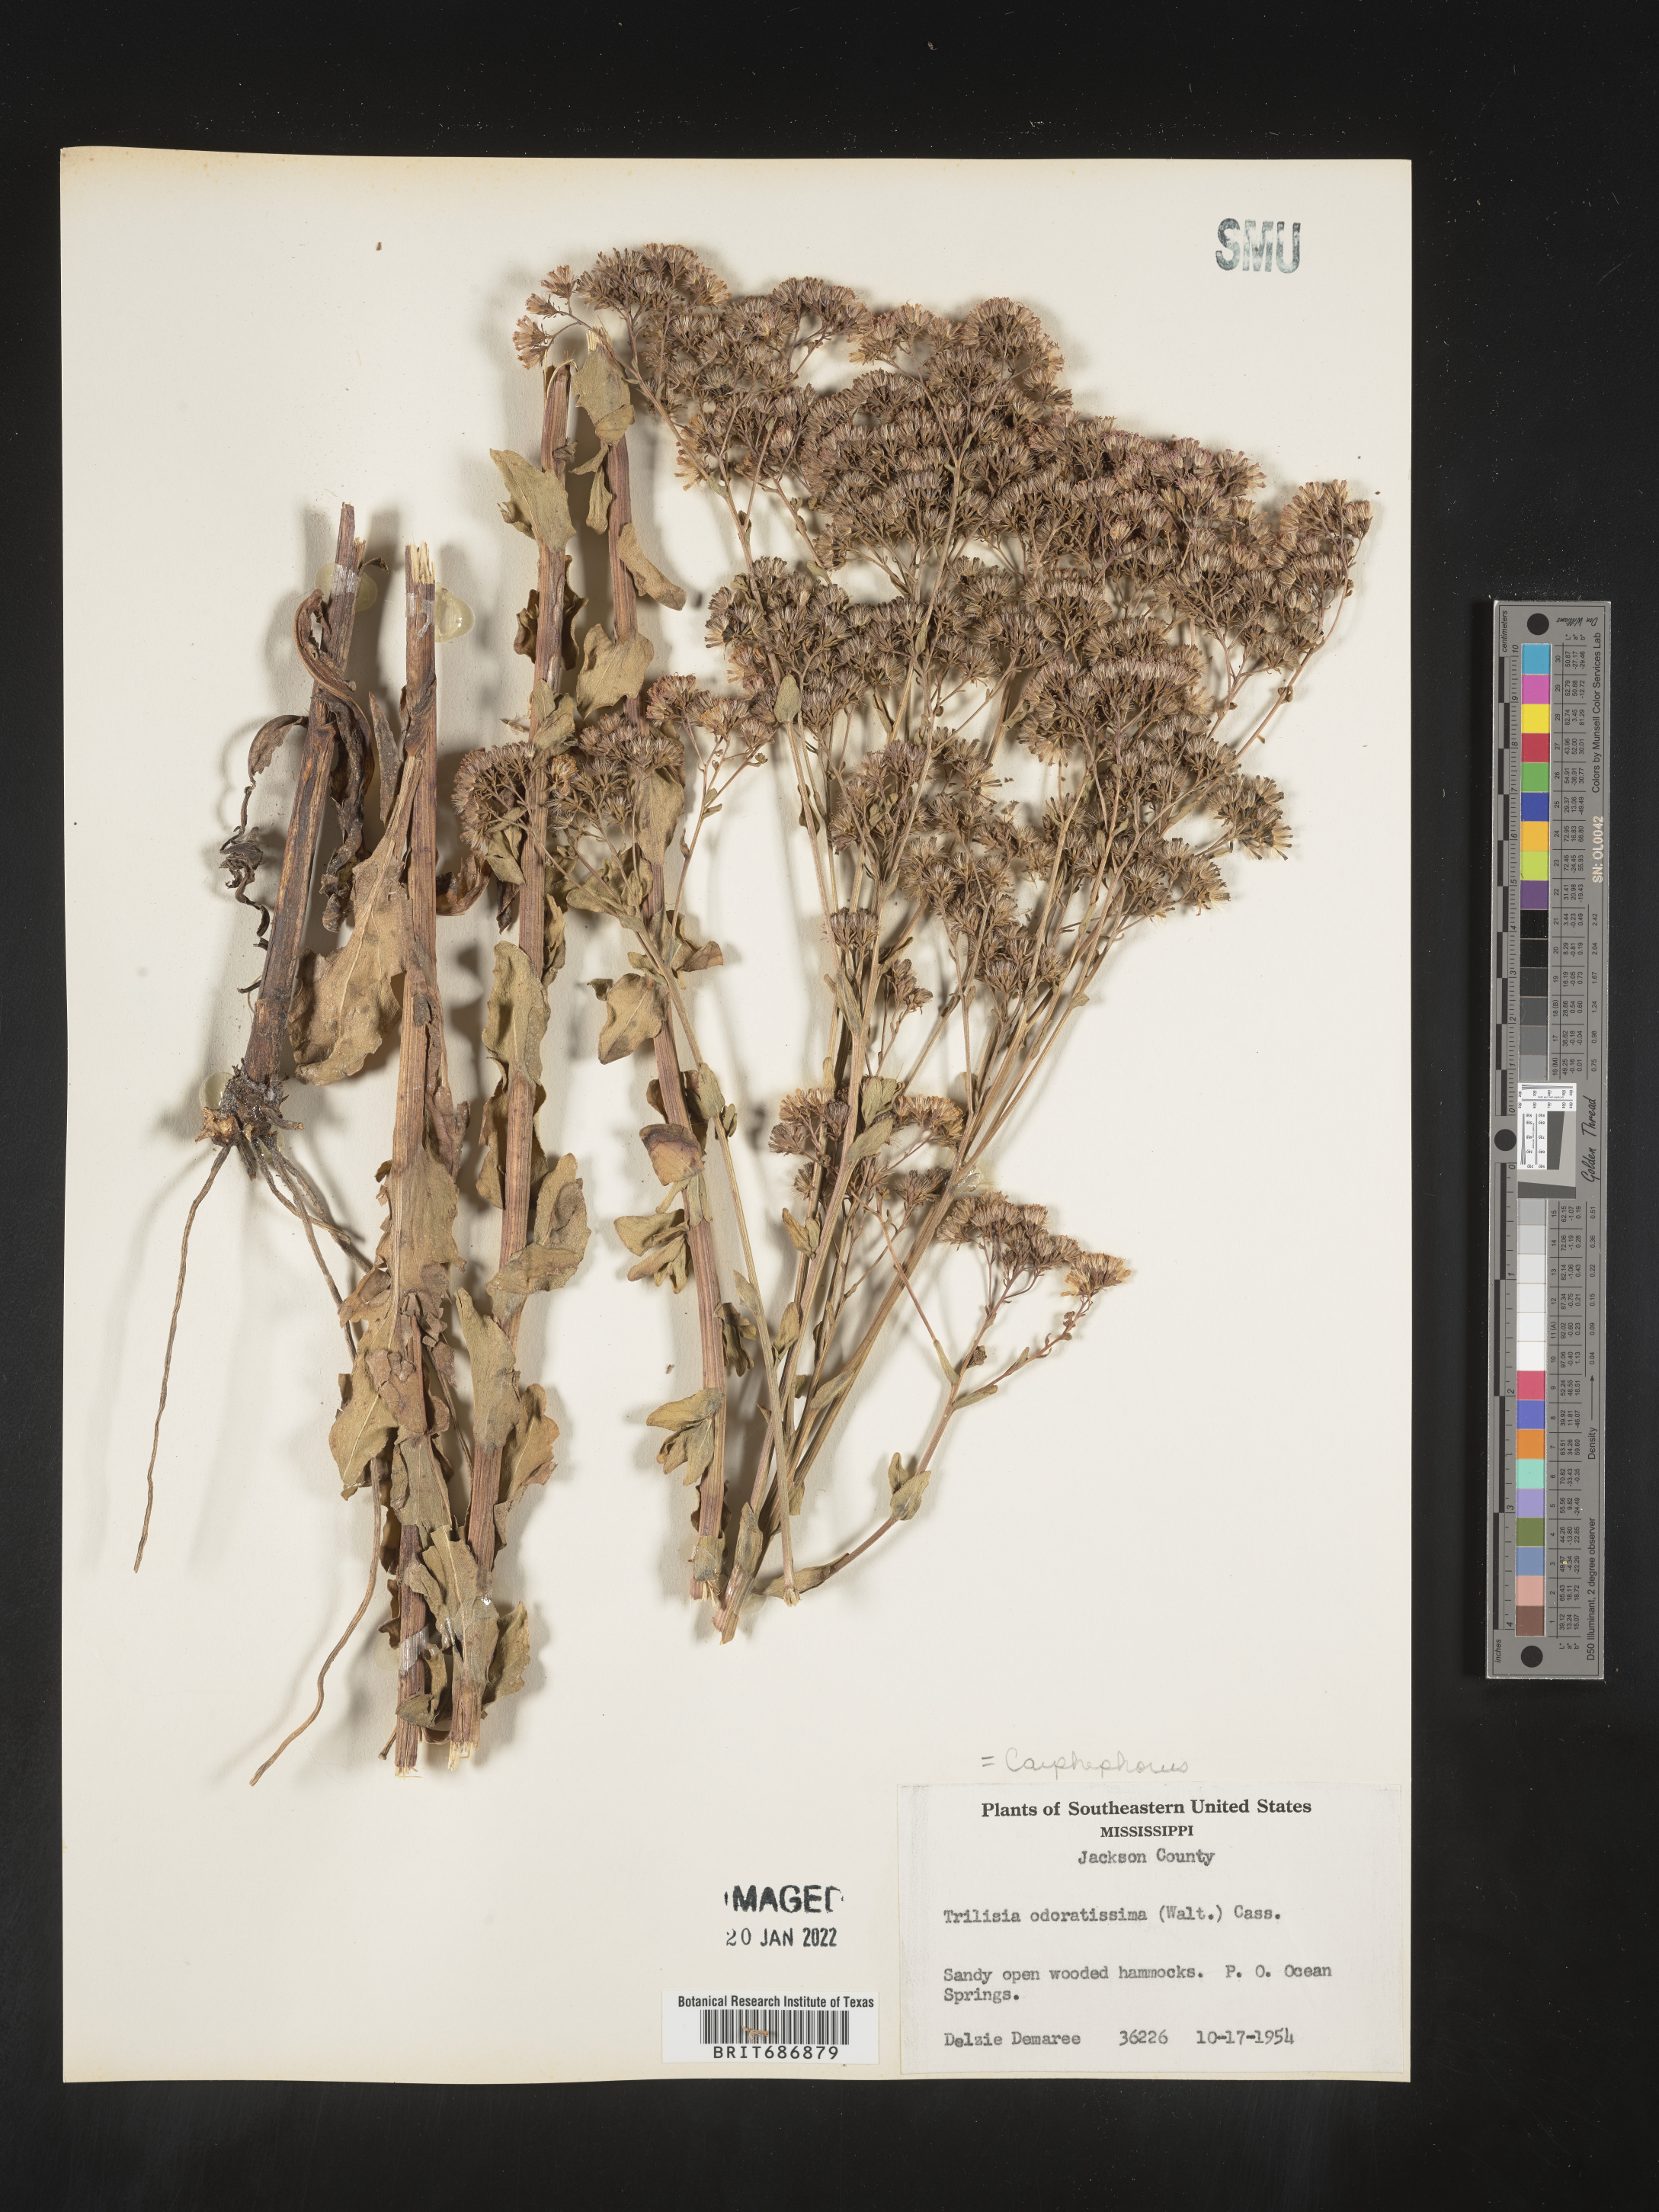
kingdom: Plantae
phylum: Tracheophyta
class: Magnoliopsida
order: Asterales
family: Asteraceae
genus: Carphephorus
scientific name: Carphephorus odoratissimus
